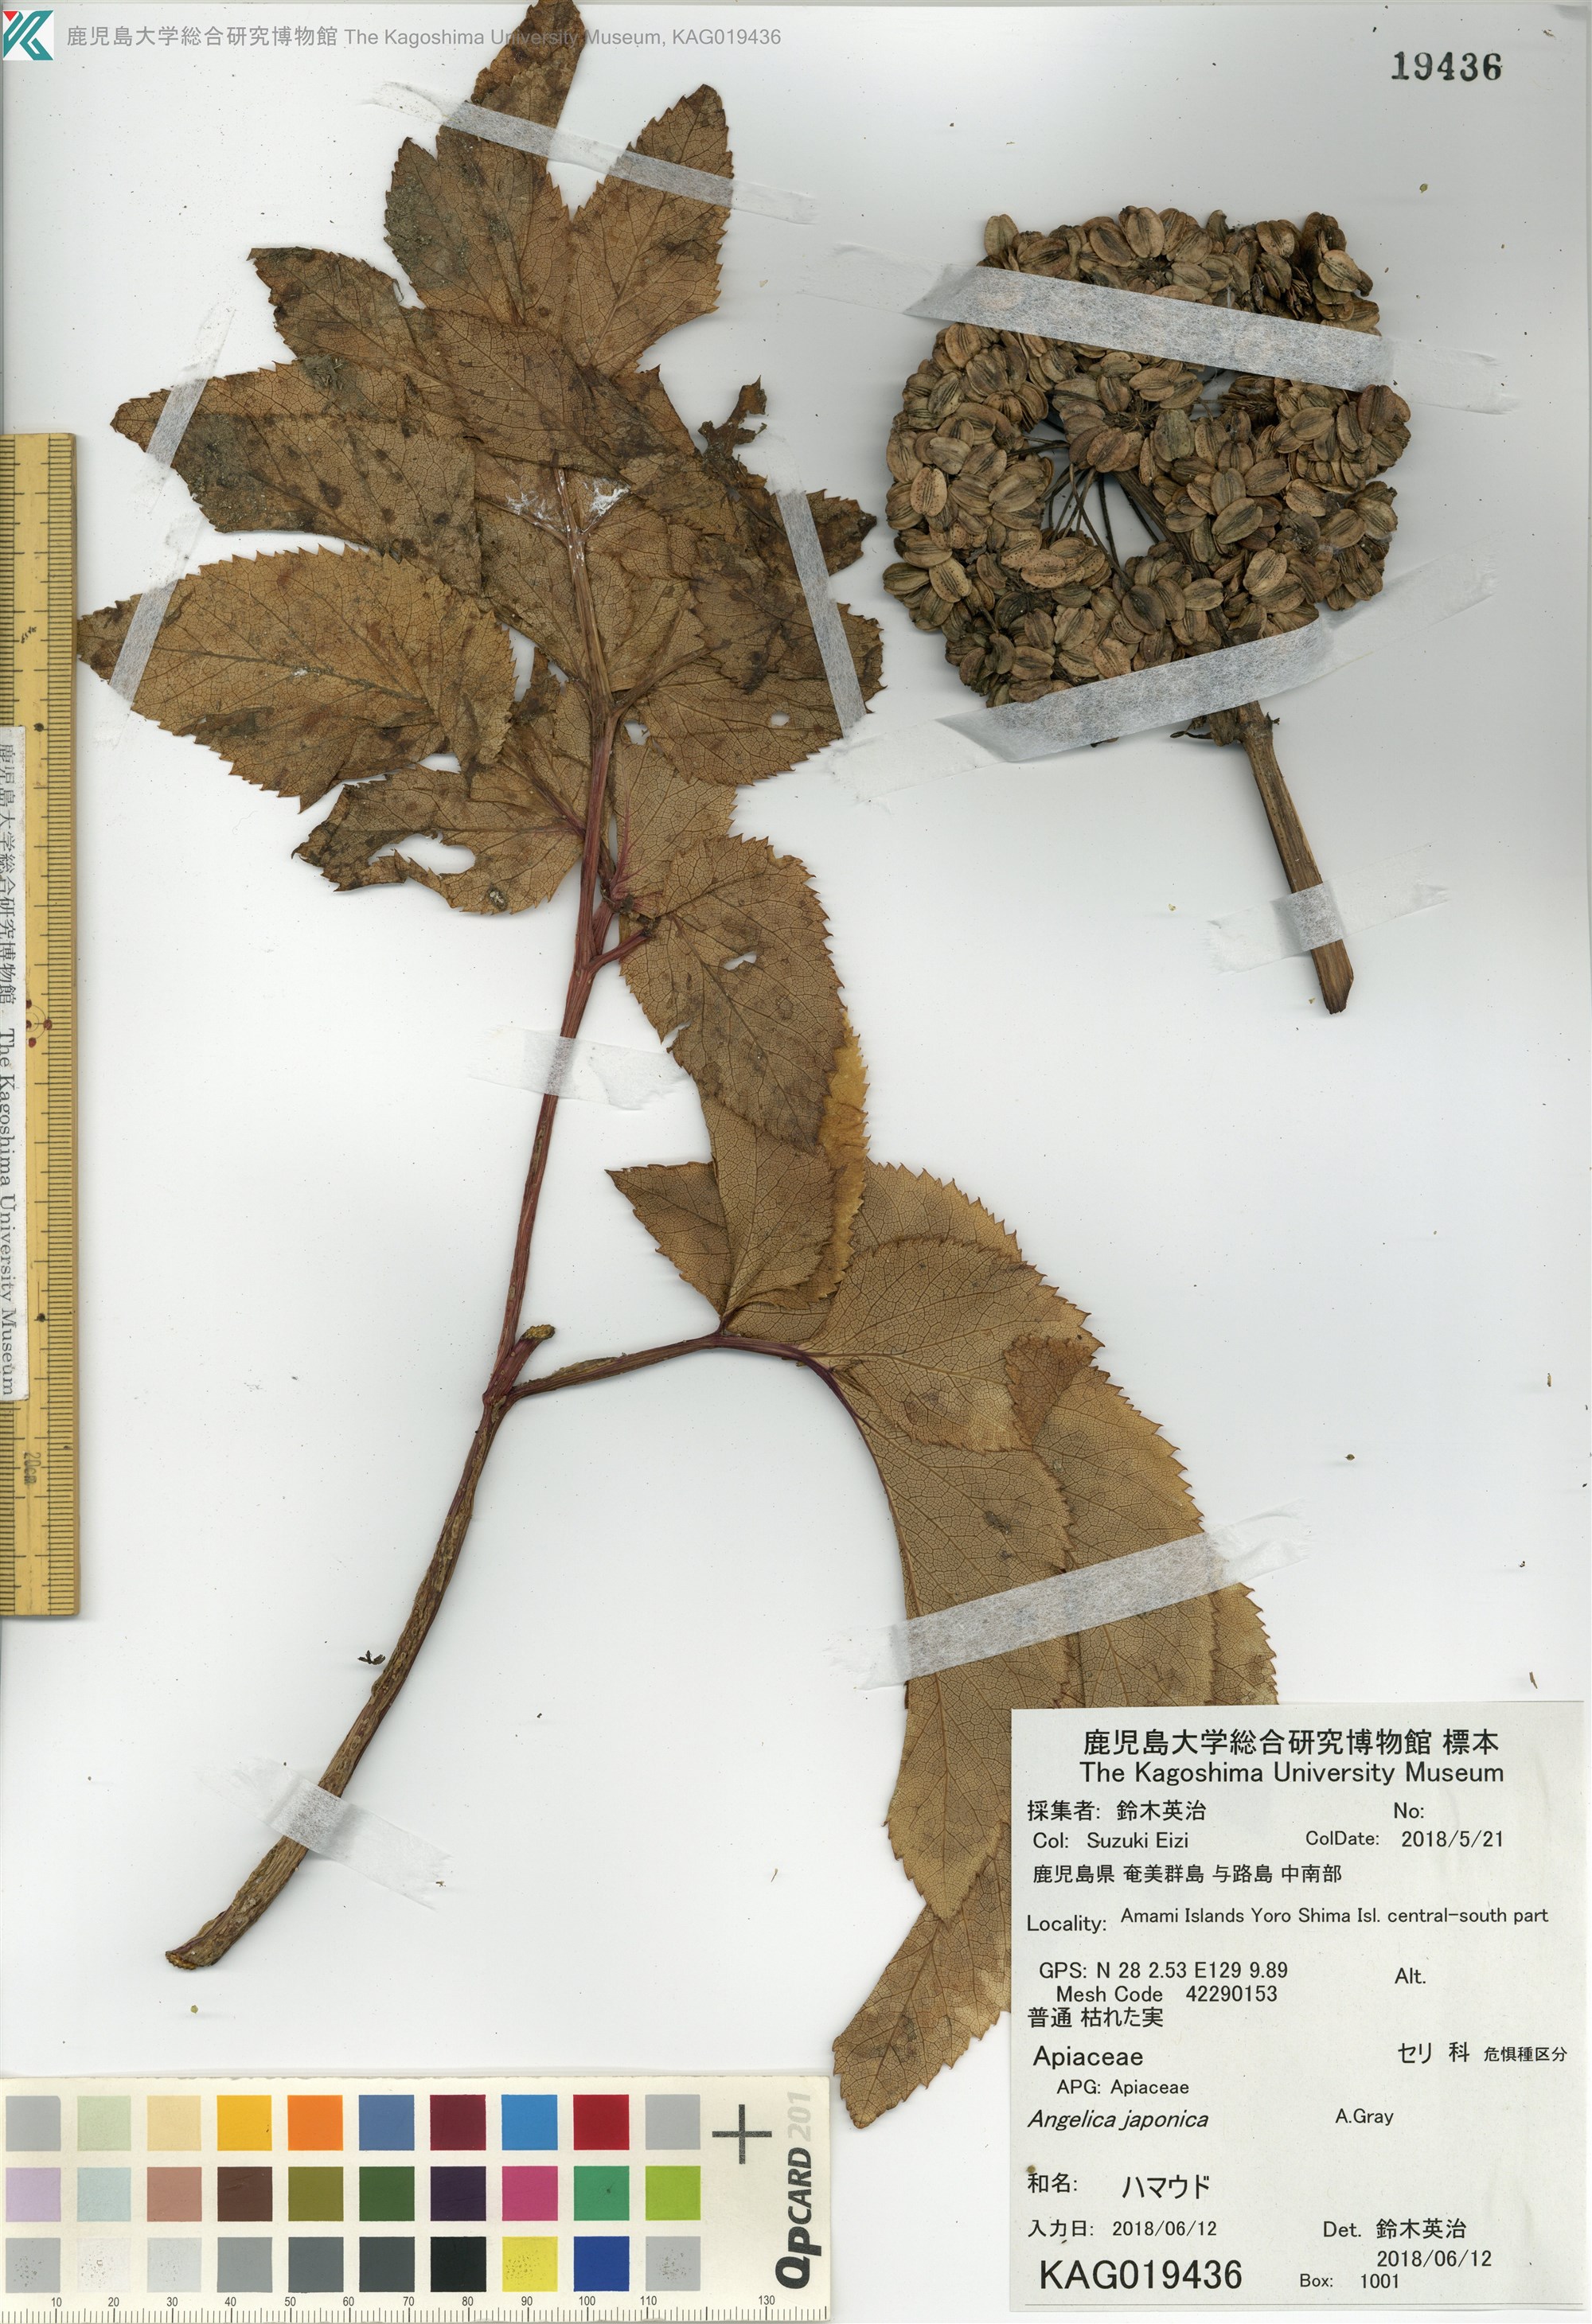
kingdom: Plantae
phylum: Tracheophyta
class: Magnoliopsida
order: Apiales
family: Apiaceae
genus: Angelica
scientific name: Angelica japonica
